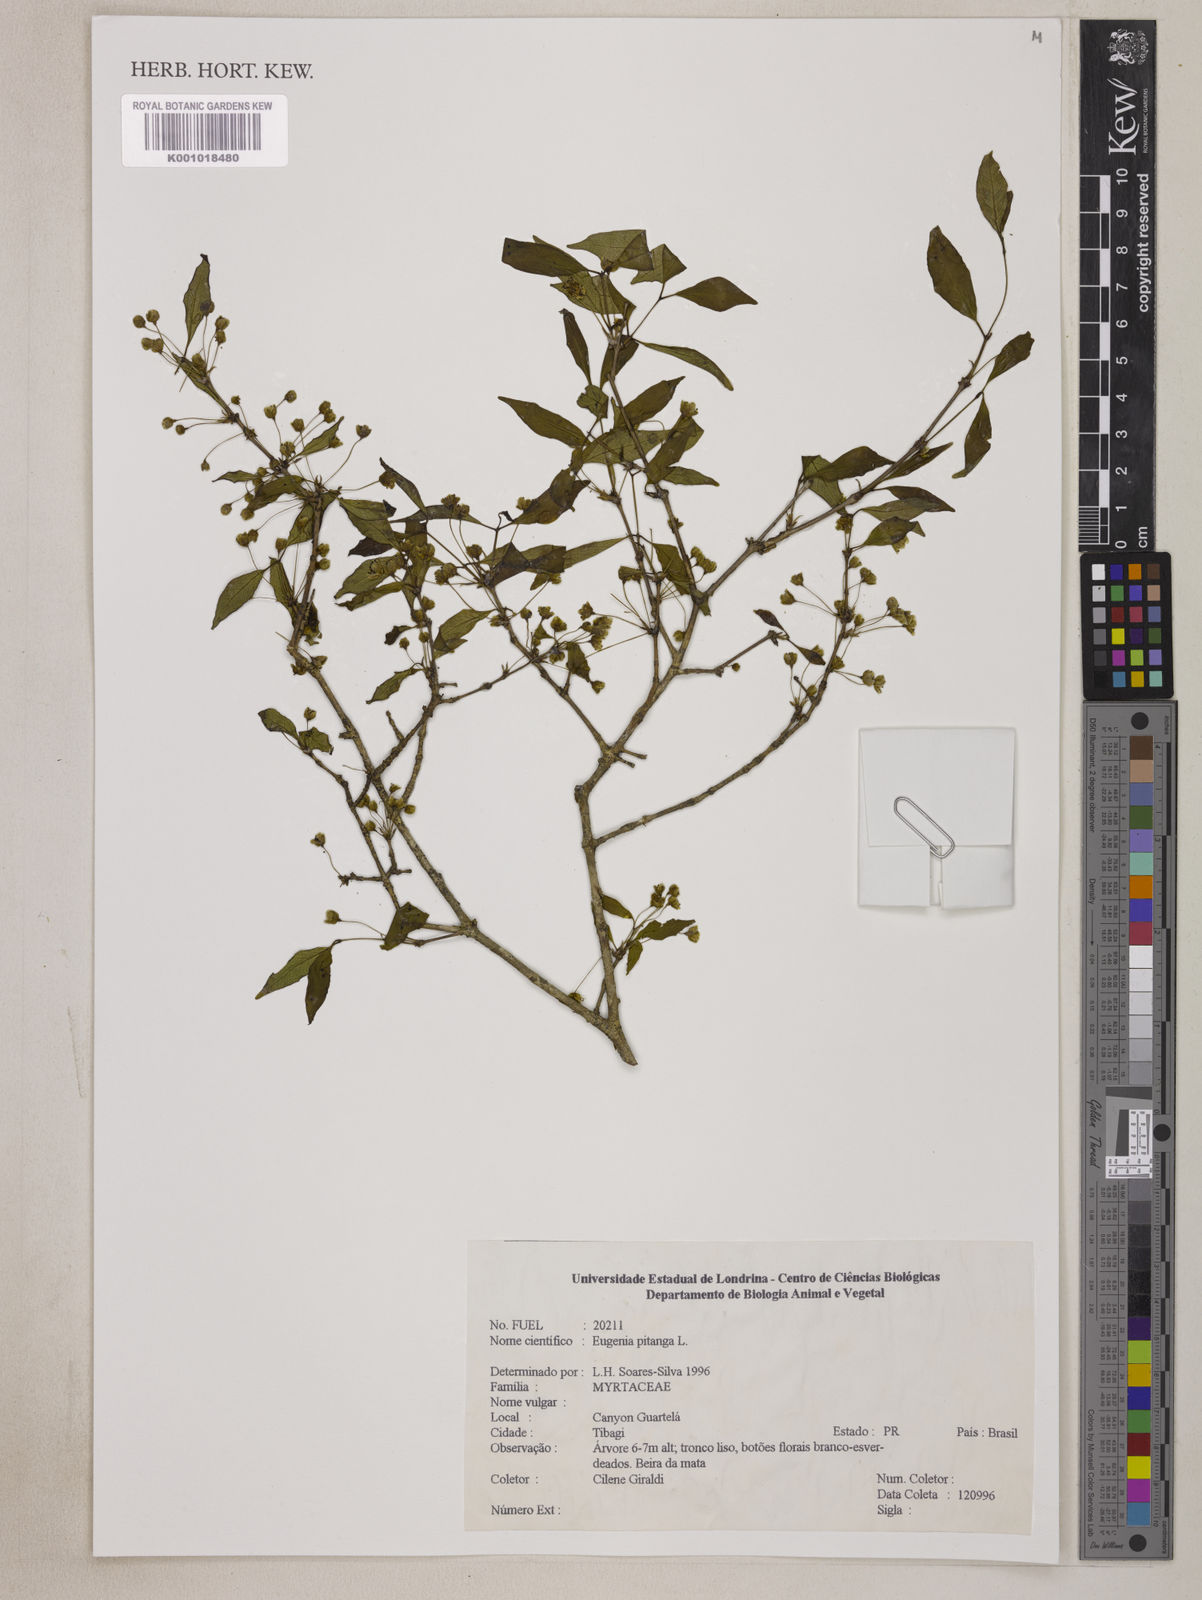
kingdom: Plantae
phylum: Tracheophyta
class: Magnoliopsida
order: Myrtales
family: Myrtaceae
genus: Eugenia
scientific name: Eugenia
